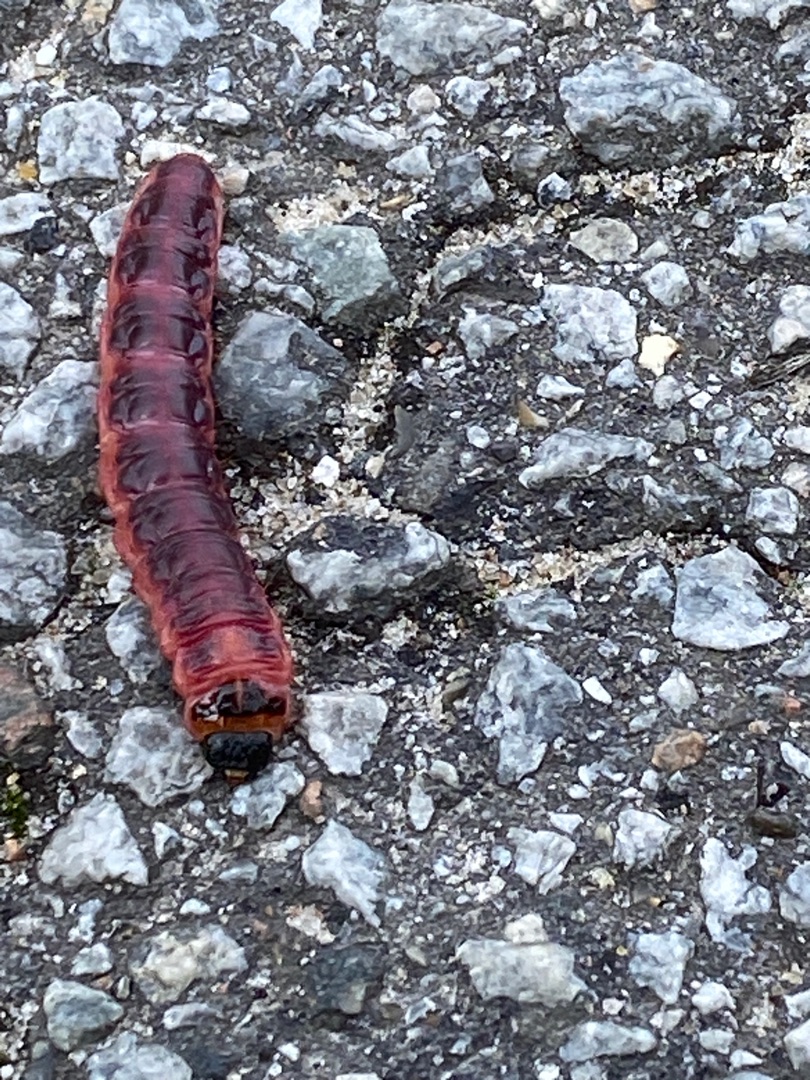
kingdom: Animalia
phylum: Arthropoda
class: Insecta
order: Lepidoptera
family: Cossidae
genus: Cossus
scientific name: Cossus cossus
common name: Pileborer
